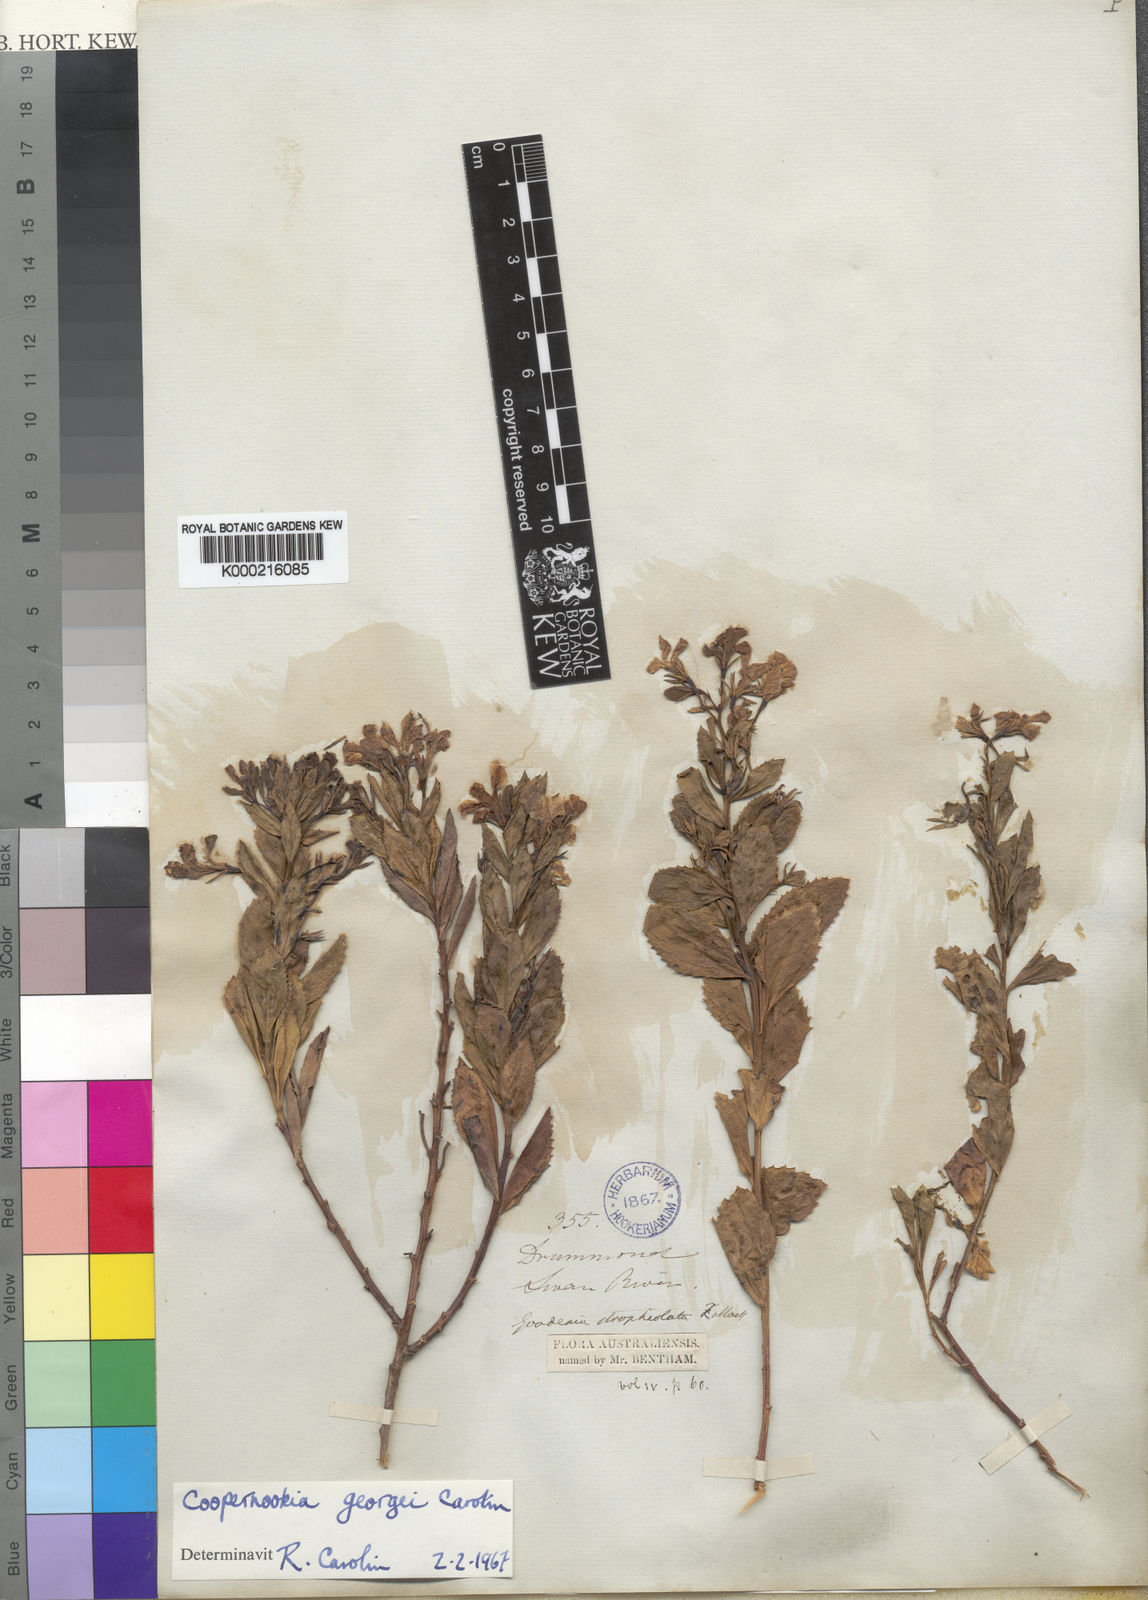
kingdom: Plantae
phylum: Tracheophyta
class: Magnoliopsida
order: Asterales
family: Goodeniaceae
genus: Goodenia
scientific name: Goodenia georgei
